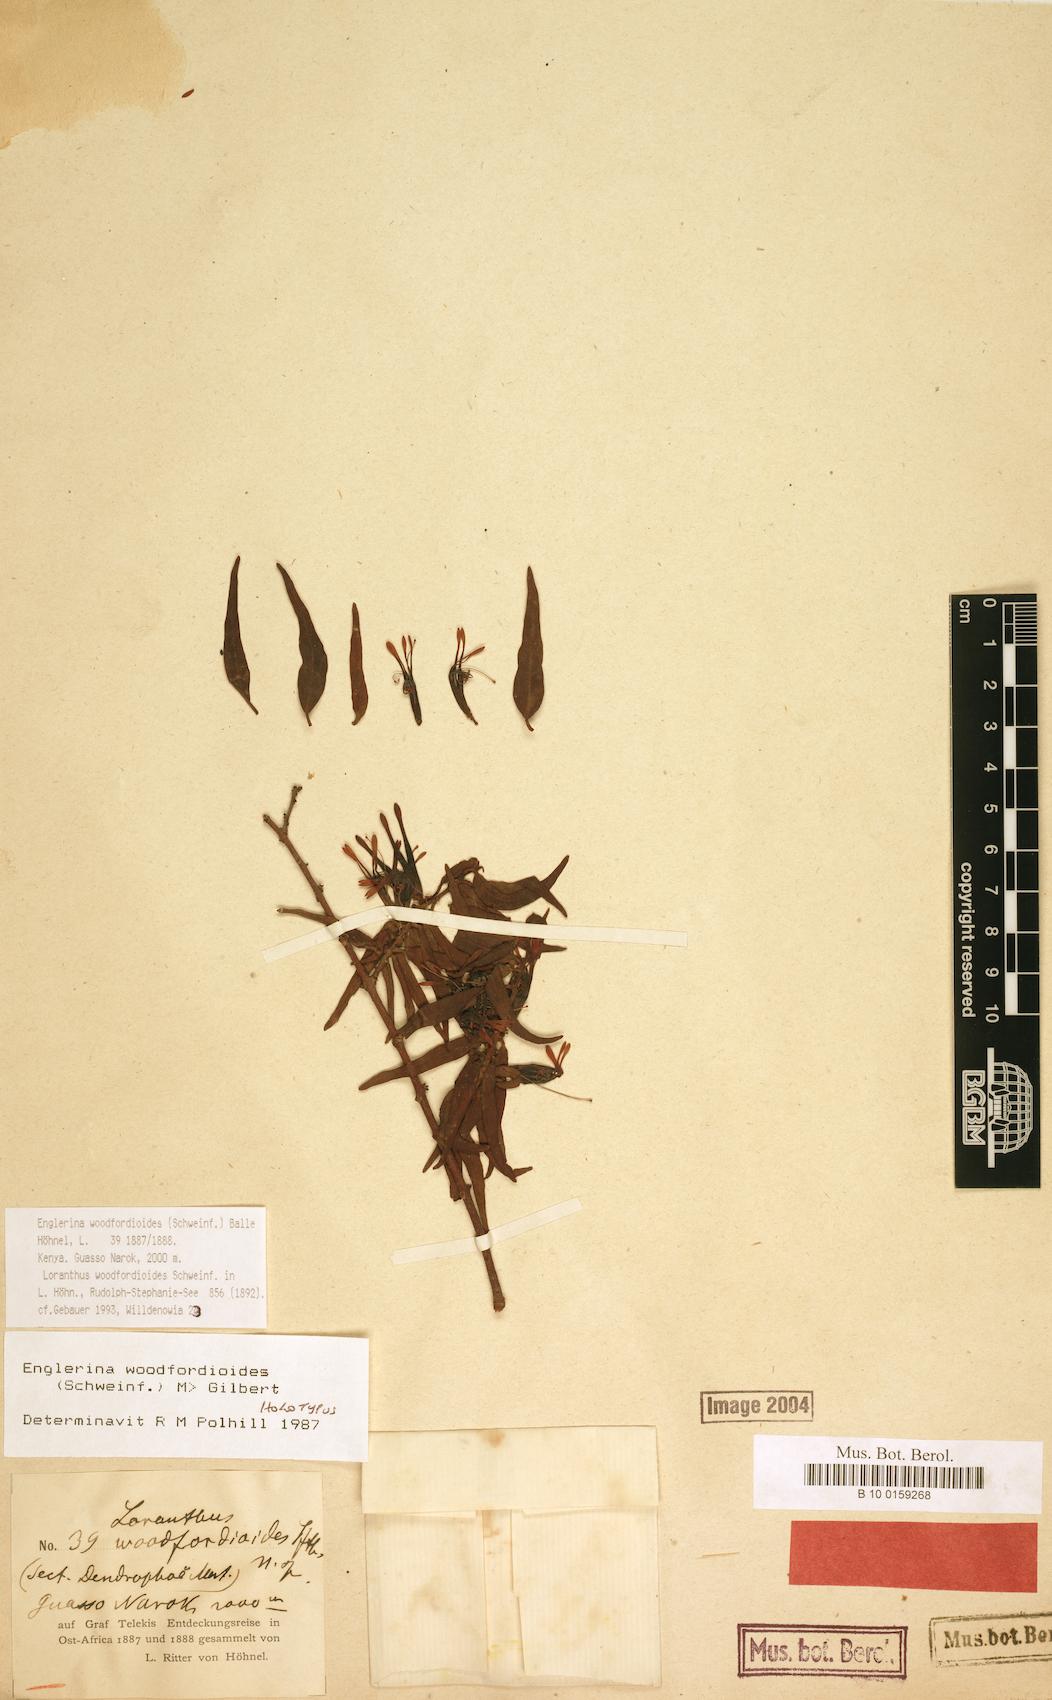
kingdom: Plantae
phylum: Tracheophyta
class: Magnoliopsida
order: Santalales
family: Loranthaceae
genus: Englerina
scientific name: Englerina woodfordioides
